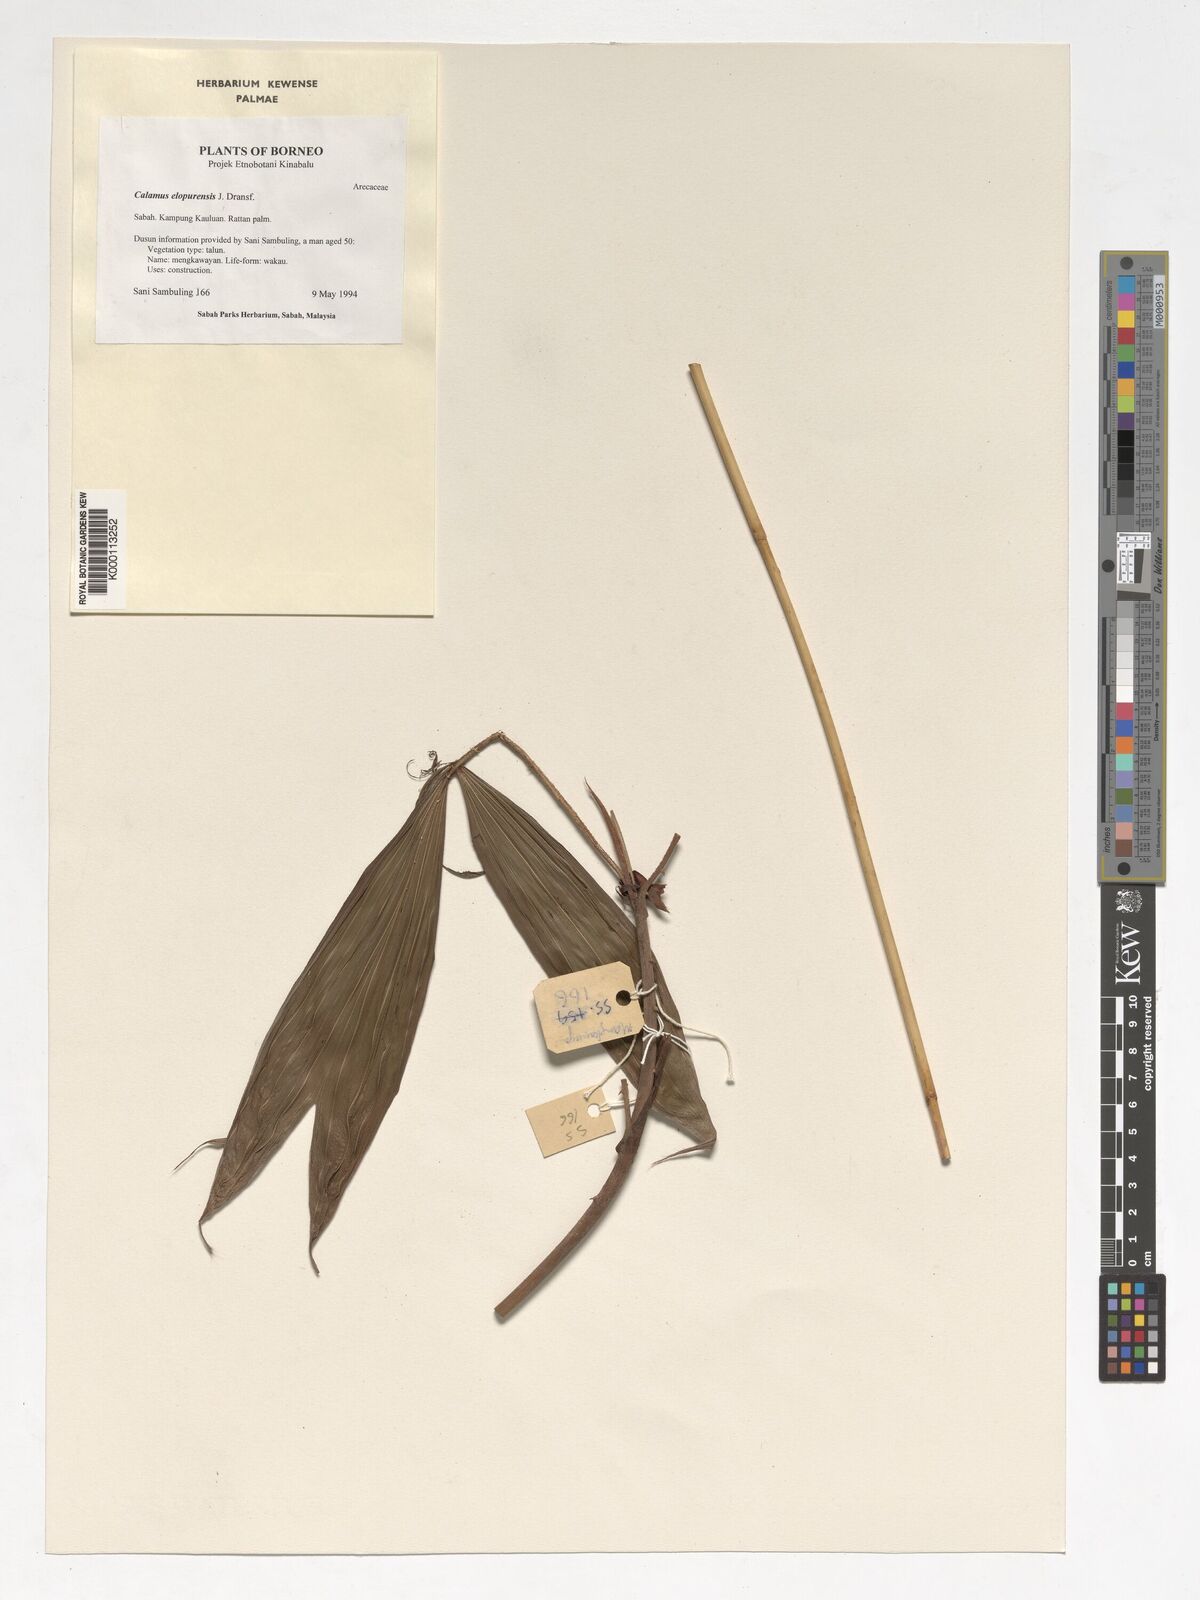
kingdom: Plantae
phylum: Tracheophyta
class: Liliopsida
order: Arecales
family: Arecaceae
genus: Calamus
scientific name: Calamus javensis
